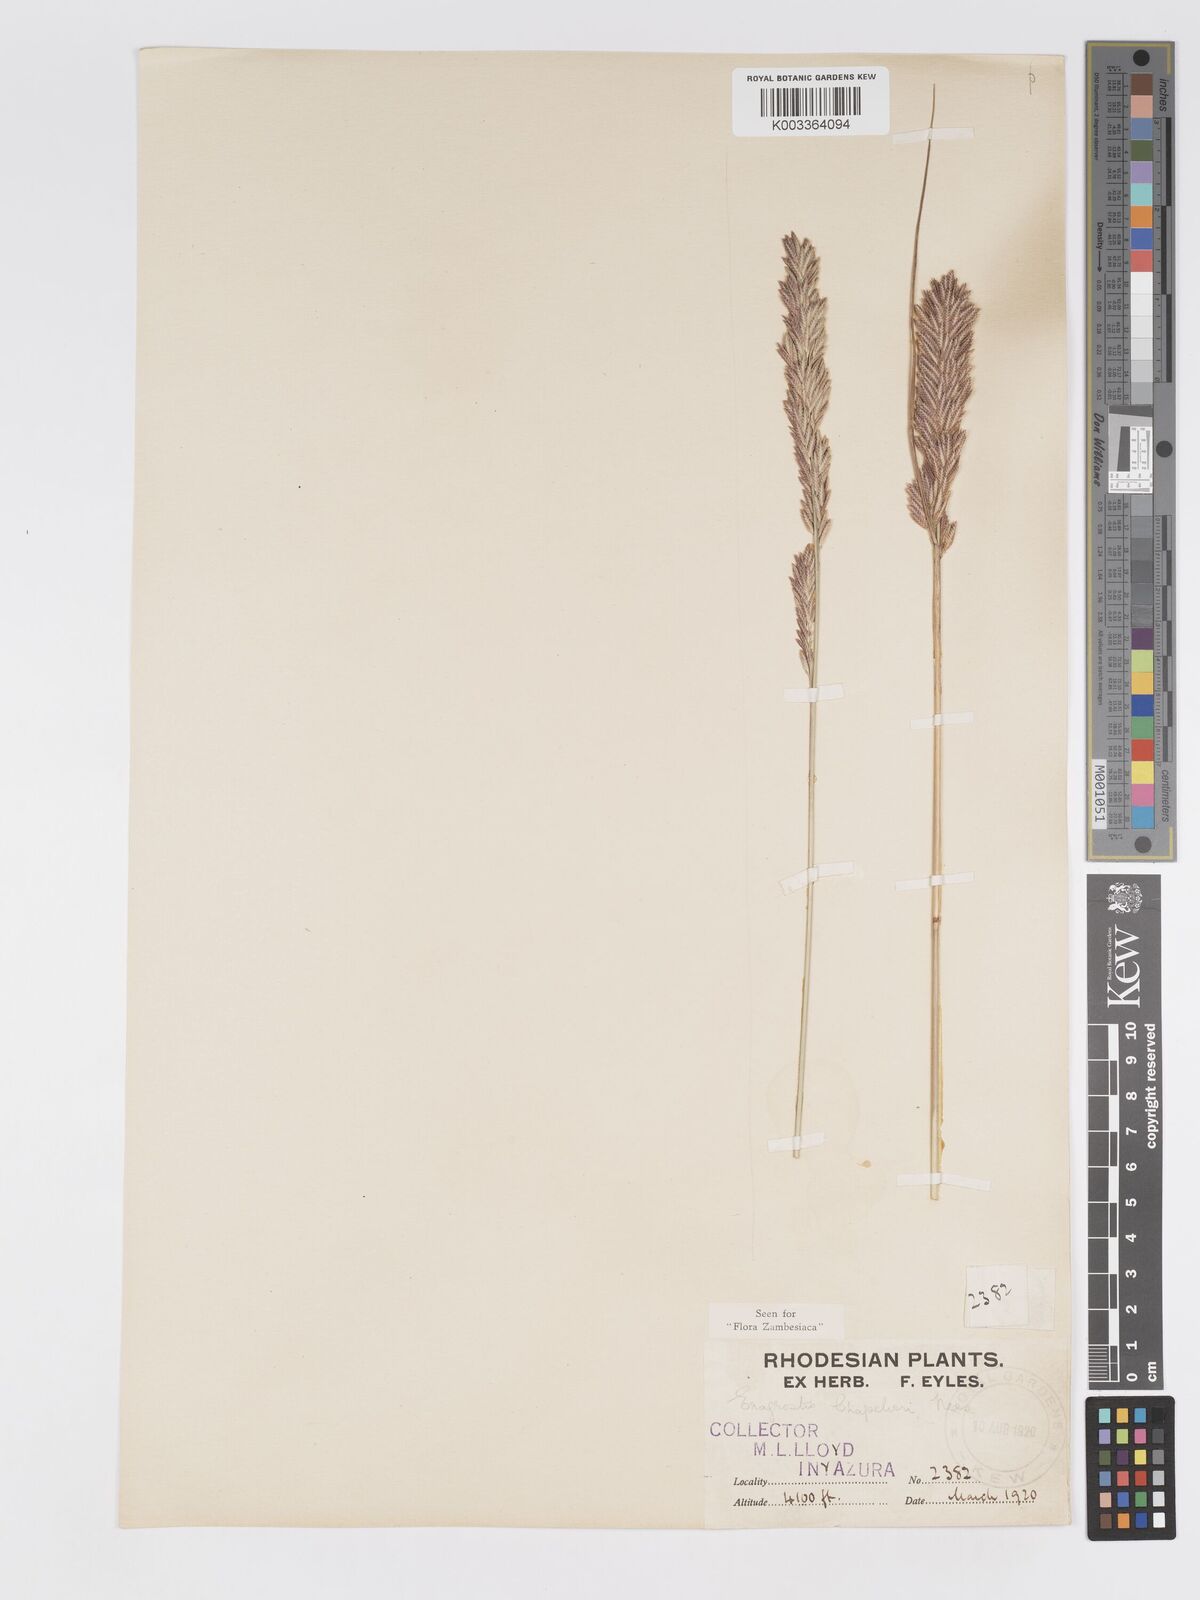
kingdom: Plantae
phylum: Tracheophyta
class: Liliopsida
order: Poales
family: Poaceae
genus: Eragrostis
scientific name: Eragrostis chapelieri
